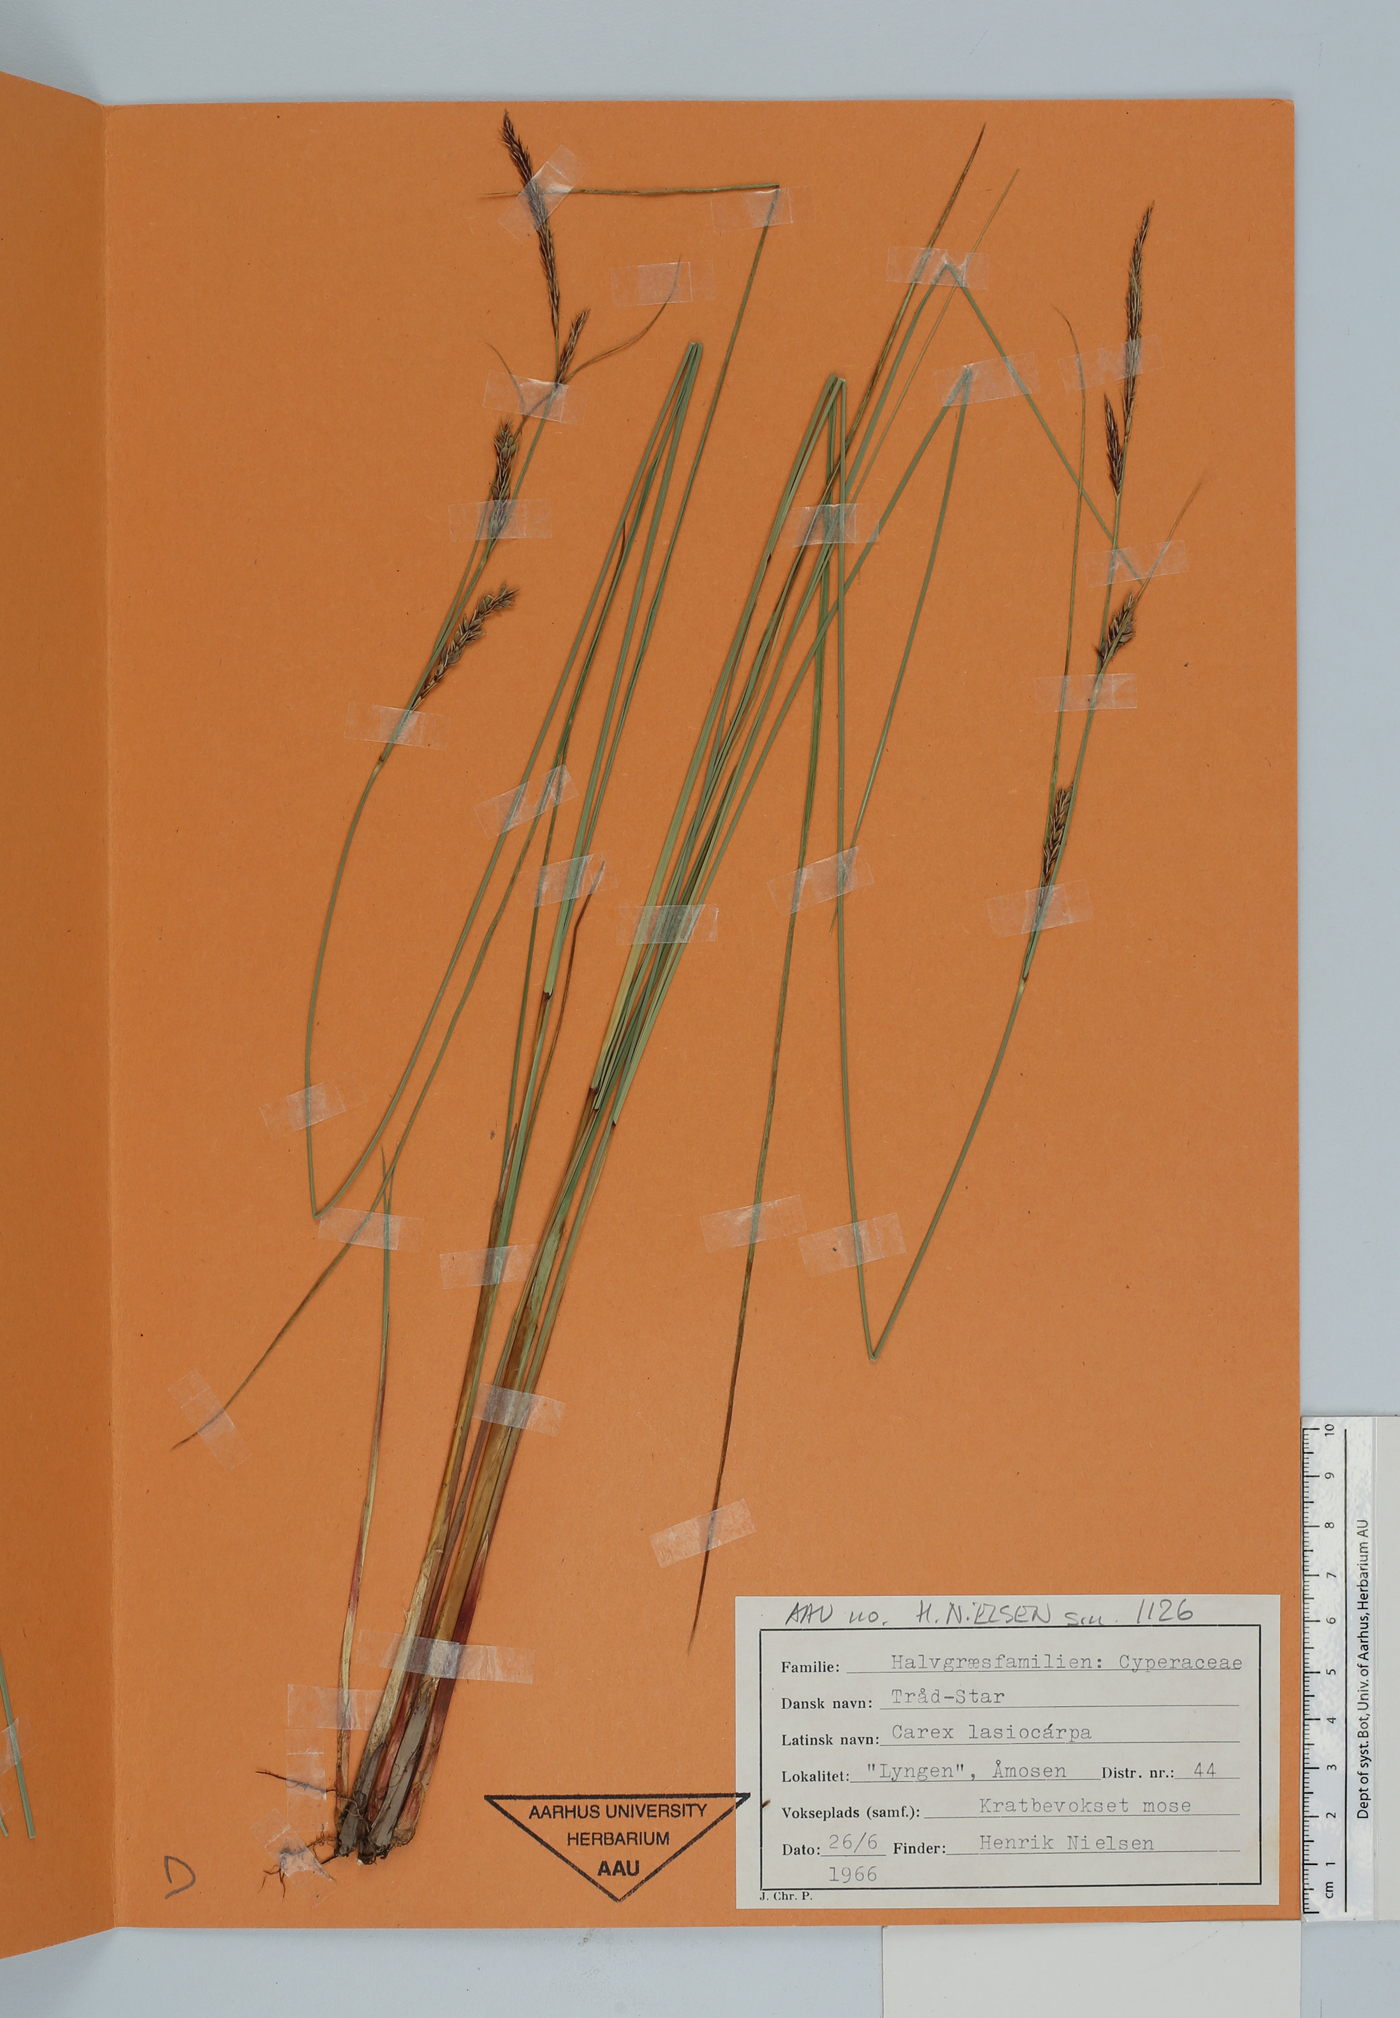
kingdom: Plantae
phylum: Tracheophyta
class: Liliopsida
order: Poales
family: Cyperaceae
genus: Carex
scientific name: Carex lasiocarpa
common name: Slender sedge
